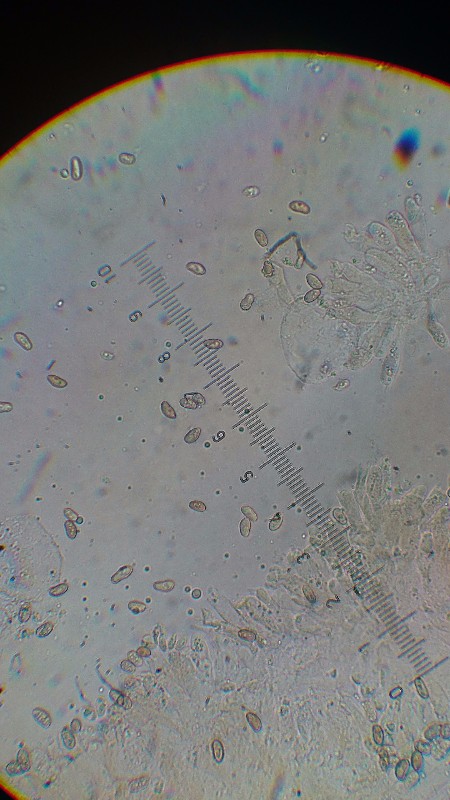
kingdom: Fungi
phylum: Basidiomycota
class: Agaricomycetes
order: Agaricales
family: Inocybaceae
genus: Inocybe
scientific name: Inocybe dulcamara
